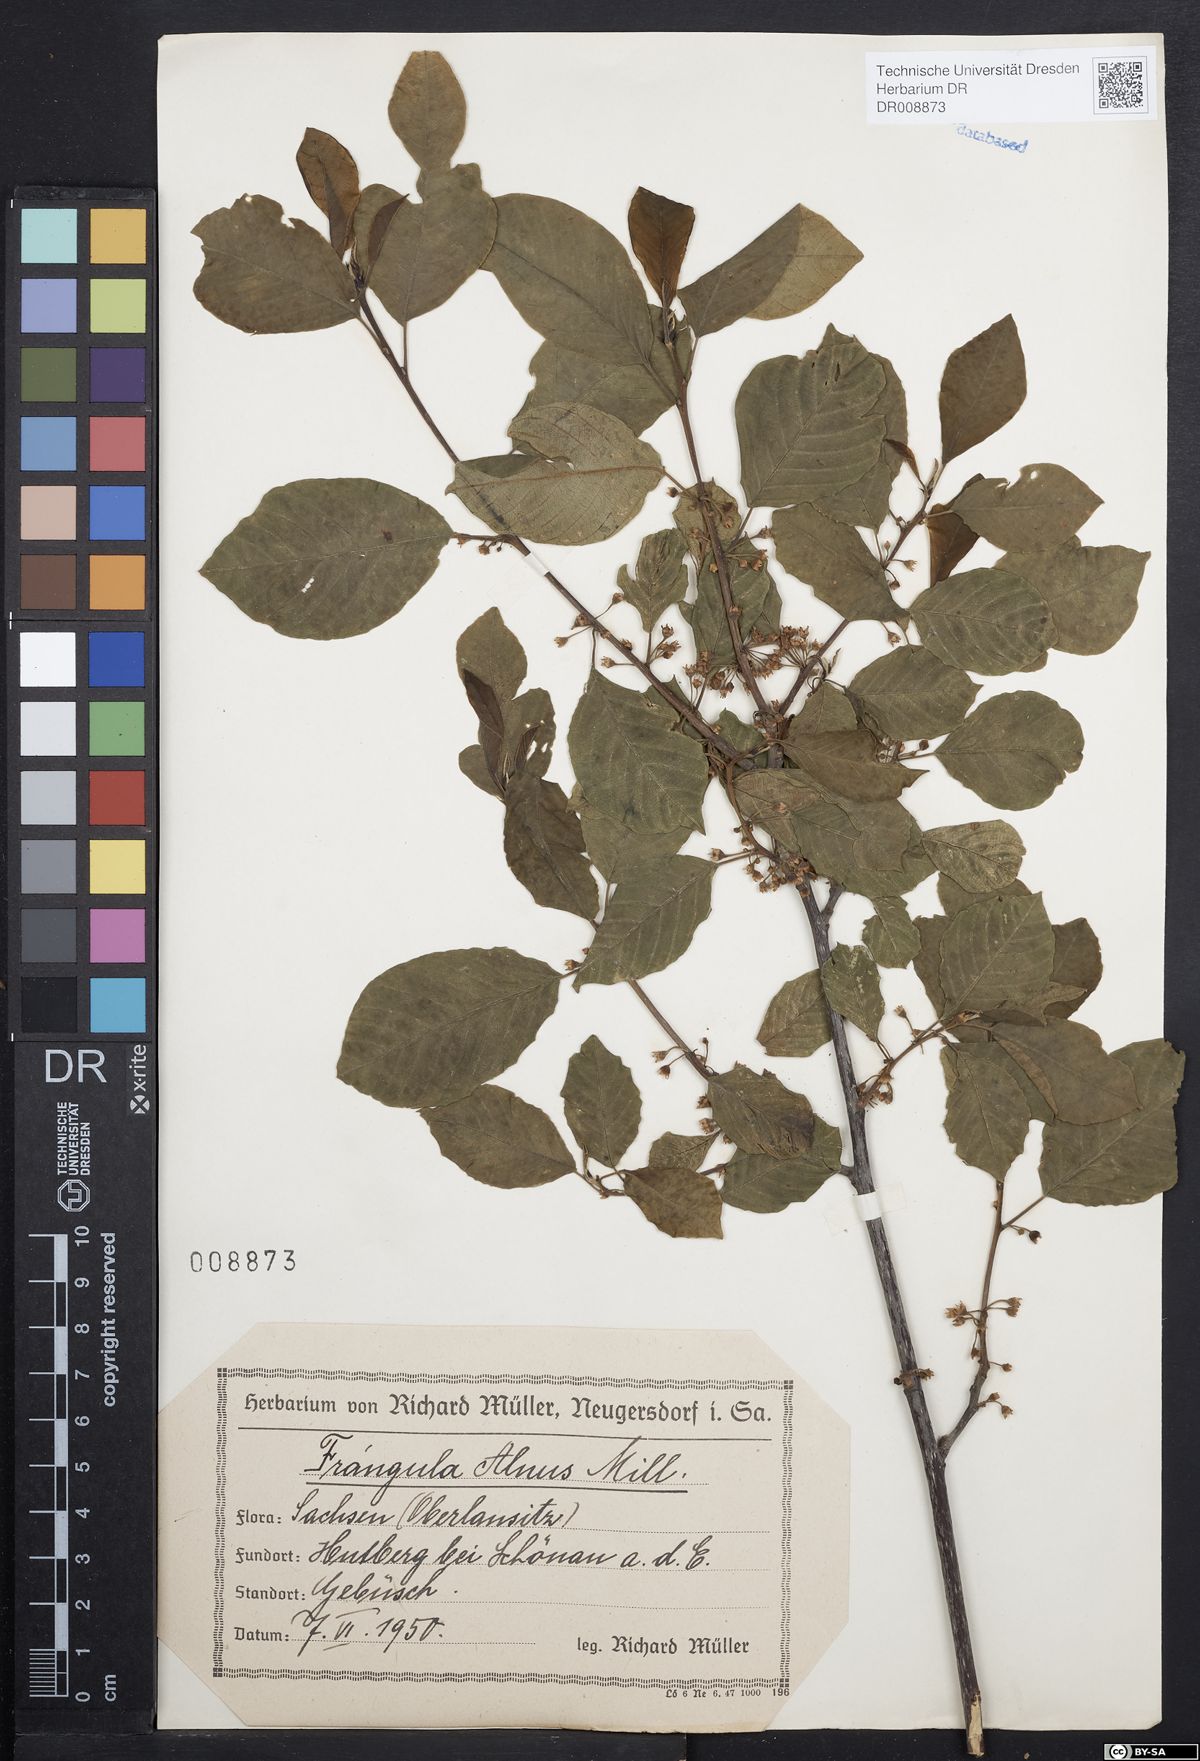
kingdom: Plantae
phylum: Tracheophyta
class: Magnoliopsida
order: Rosales
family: Rhamnaceae
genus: Frangula
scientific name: Frangula alnus
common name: Alder buckthorn
